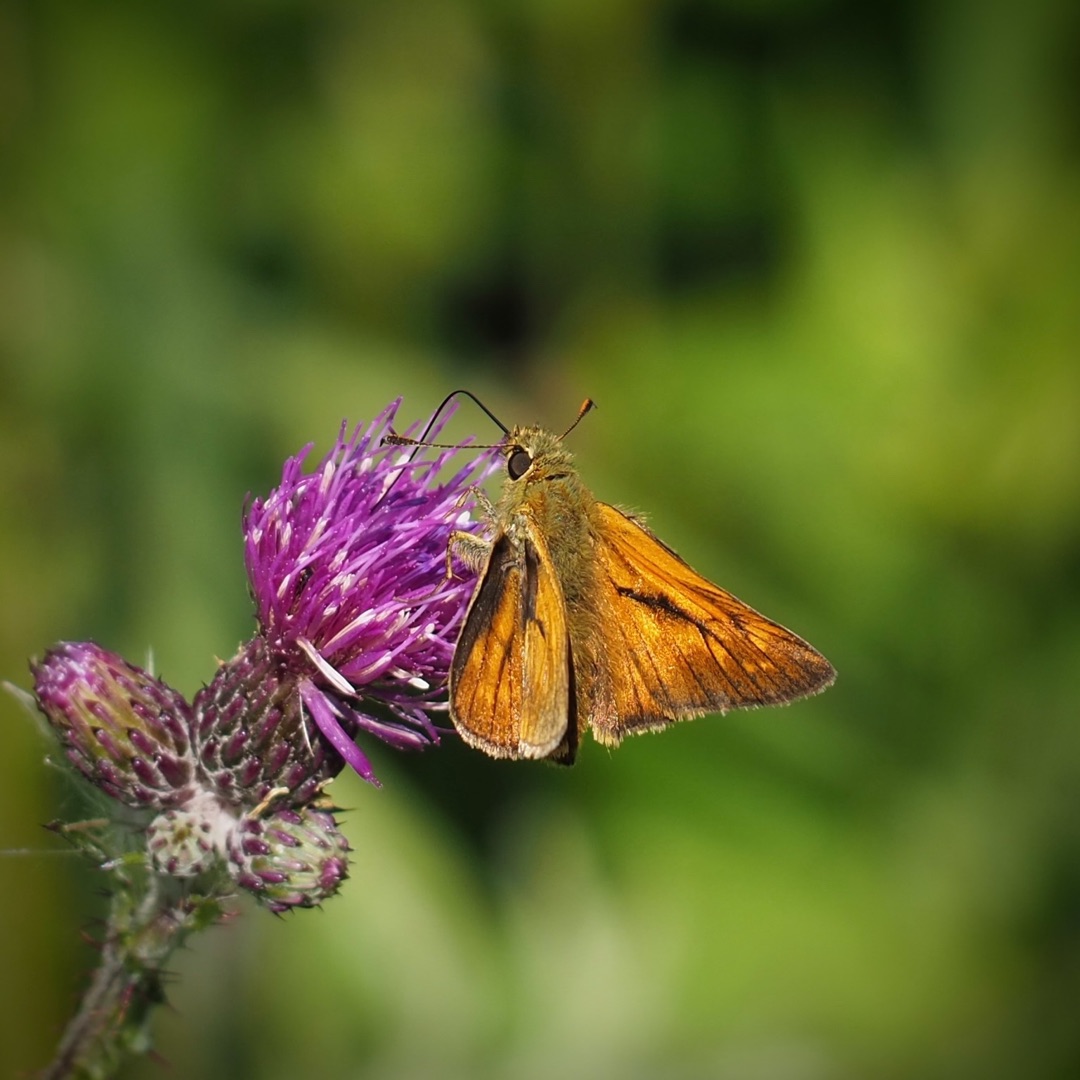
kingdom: Animalia
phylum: Arthropoda
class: Insecta
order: Lepidoptera
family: Hesperiidae
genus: Ochlodes
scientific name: Ochlodes venata
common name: Stor bredpande
